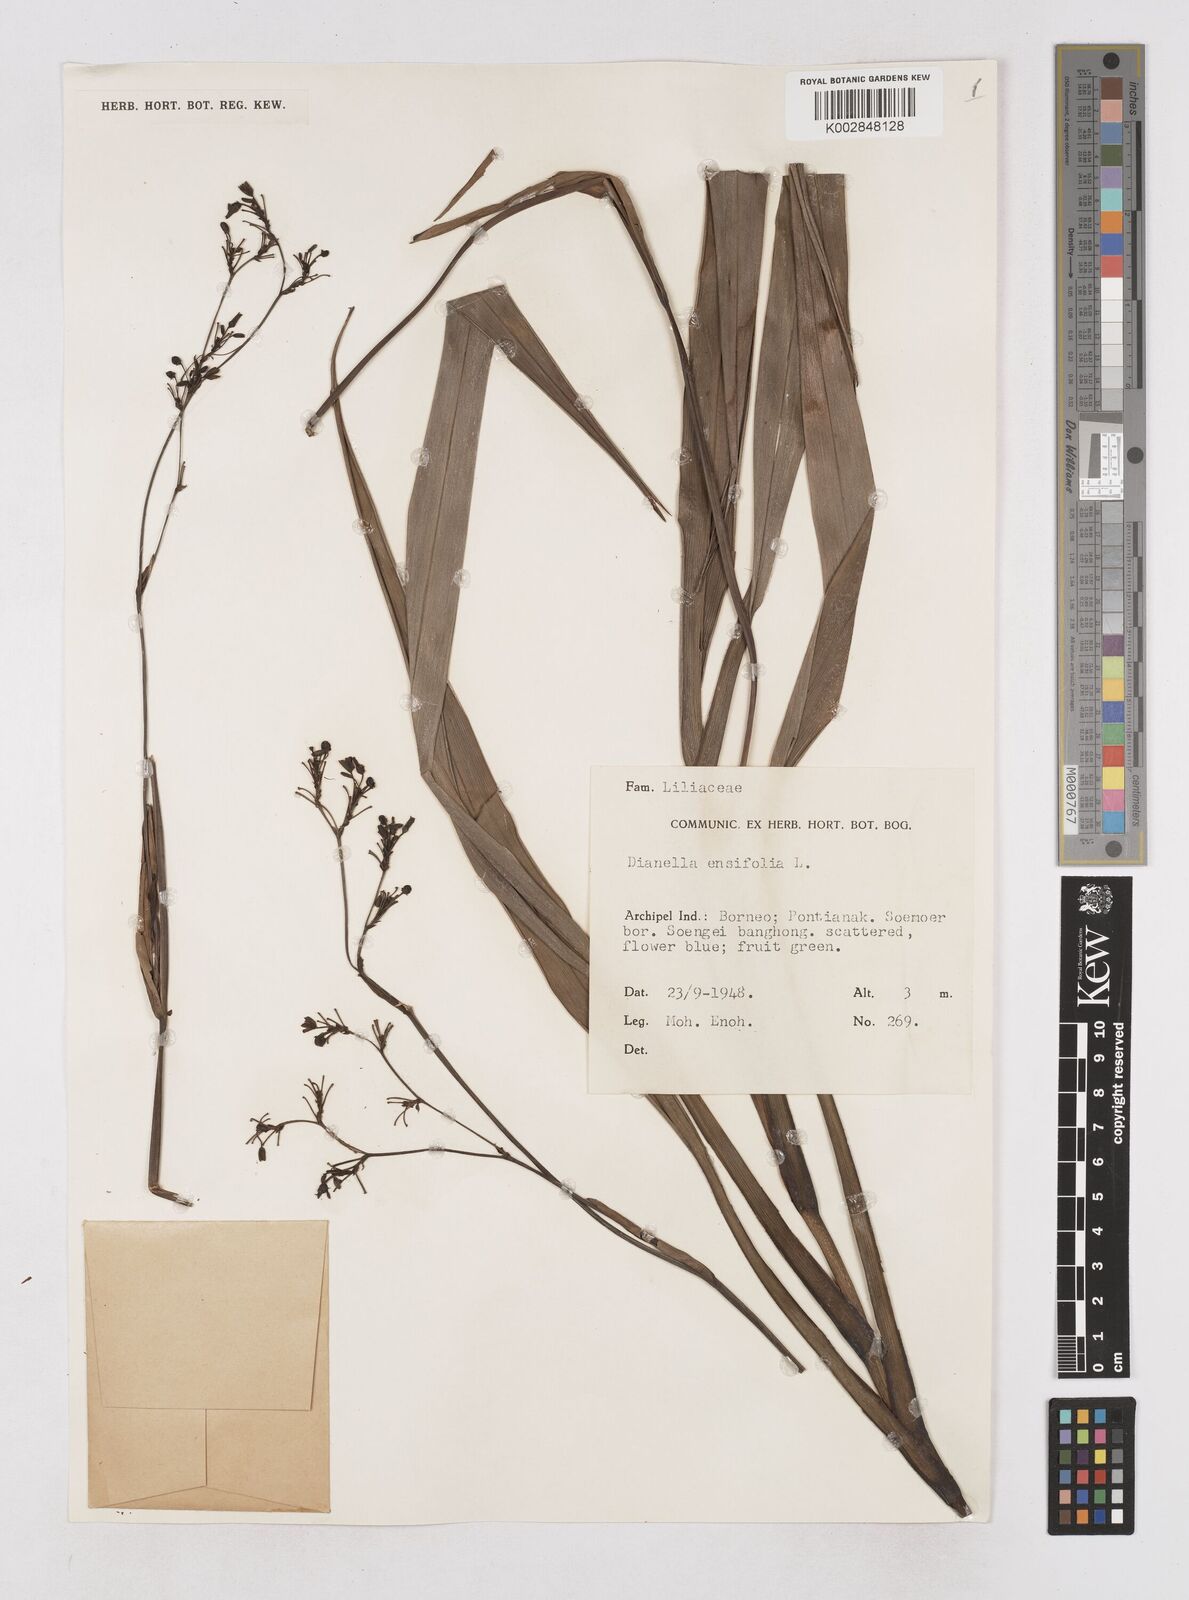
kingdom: Plantae
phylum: Tracheophyta
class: Liliopsida
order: Asparagales
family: Asphodelaceae
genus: Dianella
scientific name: Dianella ensifolia
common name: New zealand lilyplant
